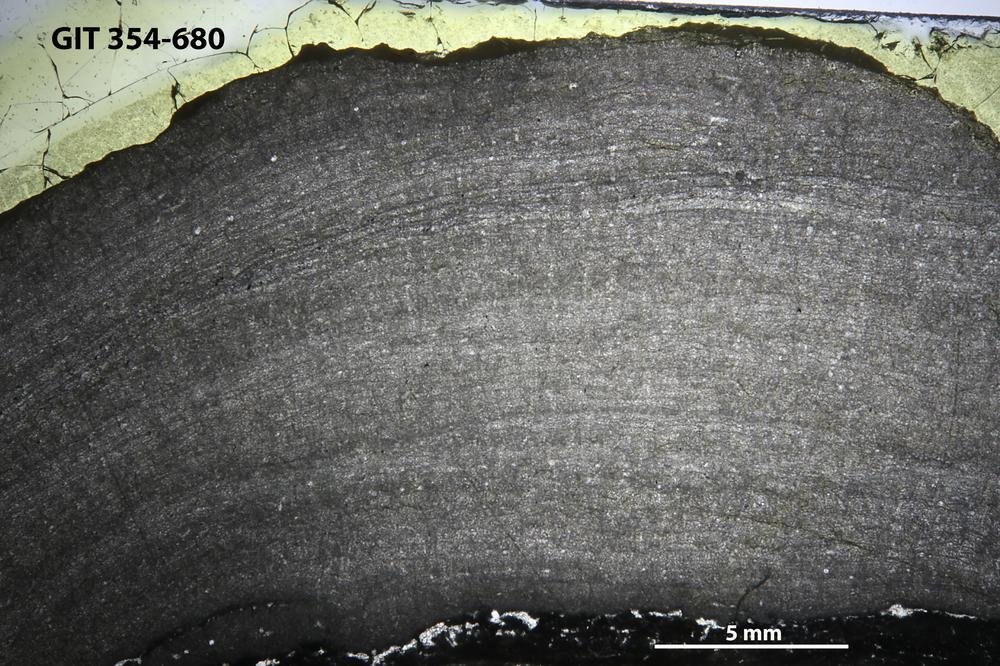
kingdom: Animalia
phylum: Porifera
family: Densastromatidae
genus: Araneosustroma
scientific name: Araneosustroma
